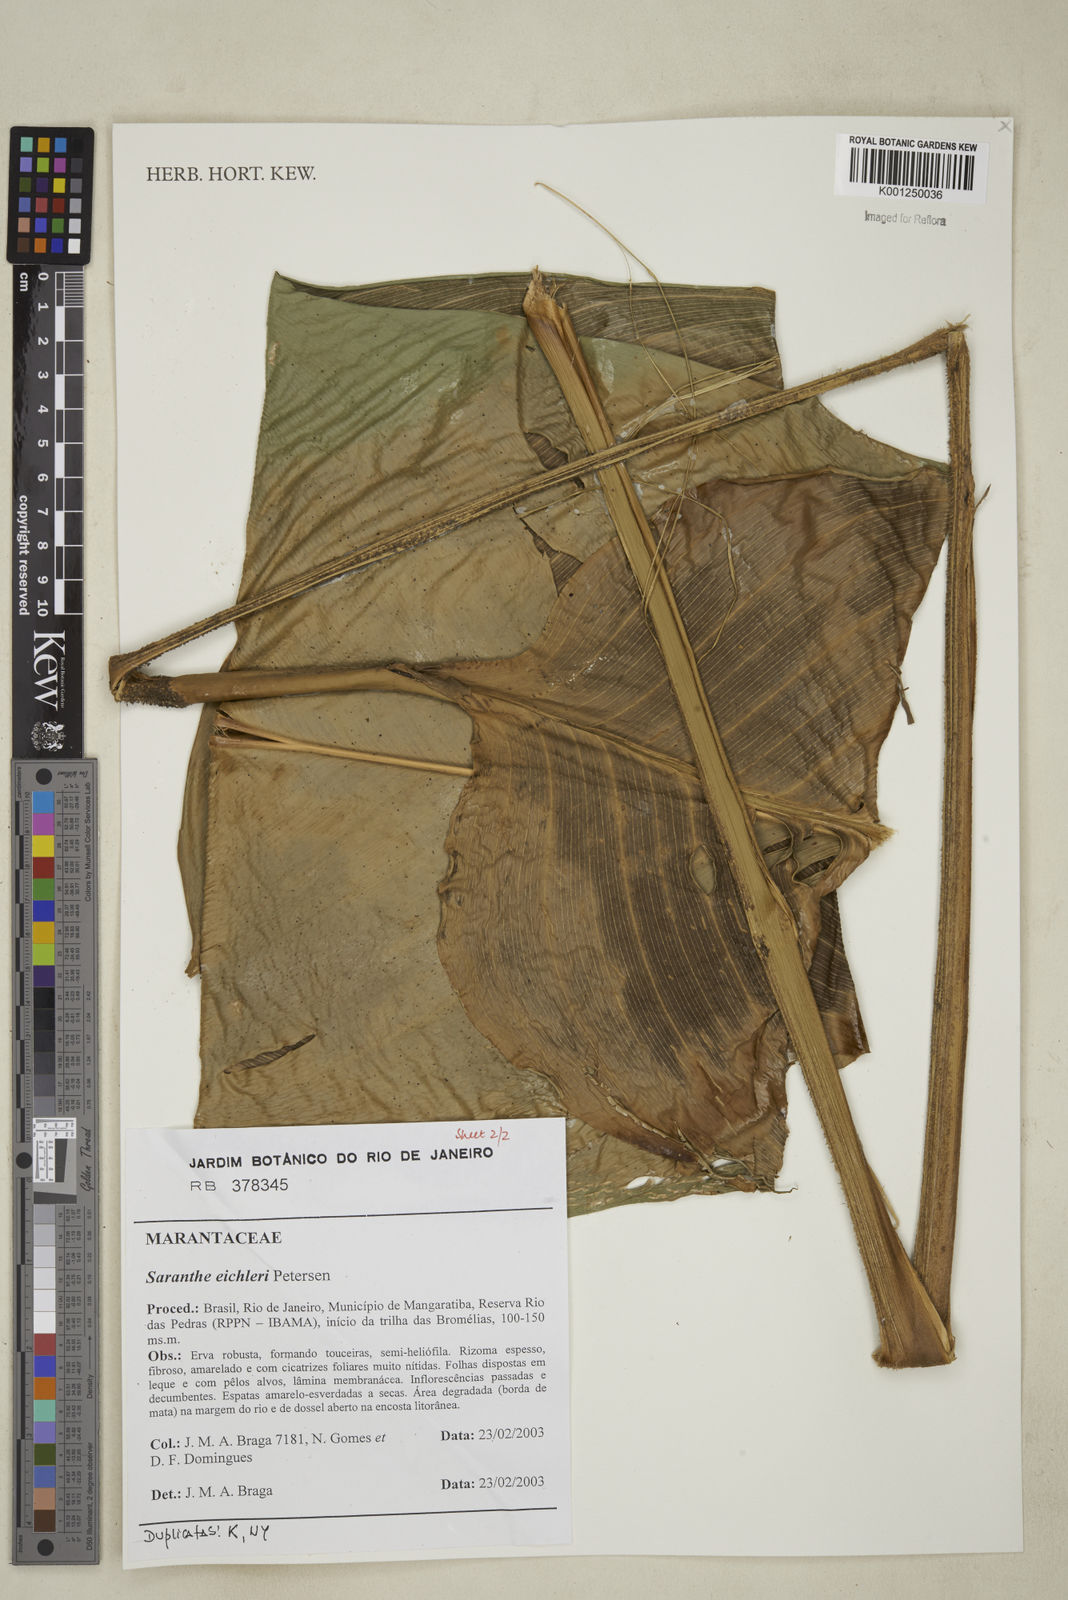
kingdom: Plantae
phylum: Tracheophyta
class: Liliopsida
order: Zingiberales
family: Marantaceae
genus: Saranthe
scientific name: Saranthe eichleri
